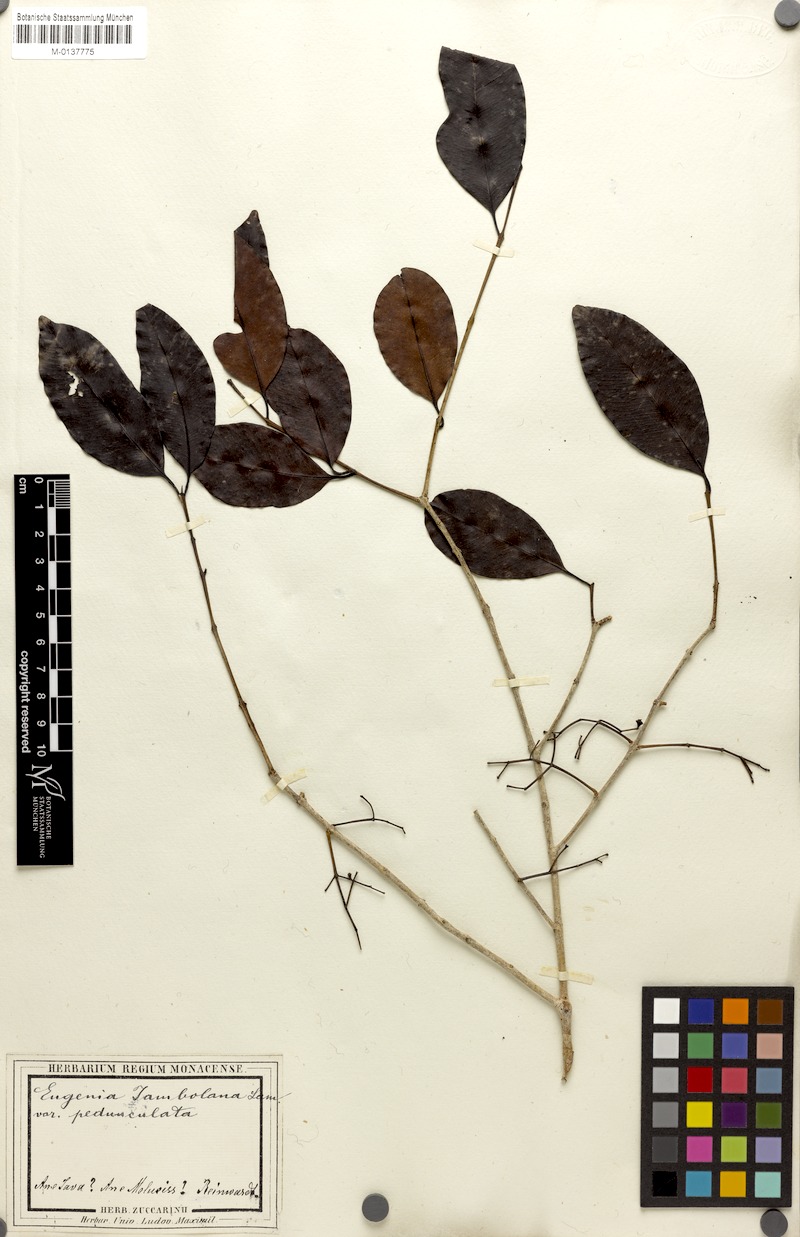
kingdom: Plantae
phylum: Tracheophyta
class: Magnoliopsida
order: Myrtales
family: Myrtaceae
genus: Syzygium
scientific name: Syzygium cumini
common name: Java plum
